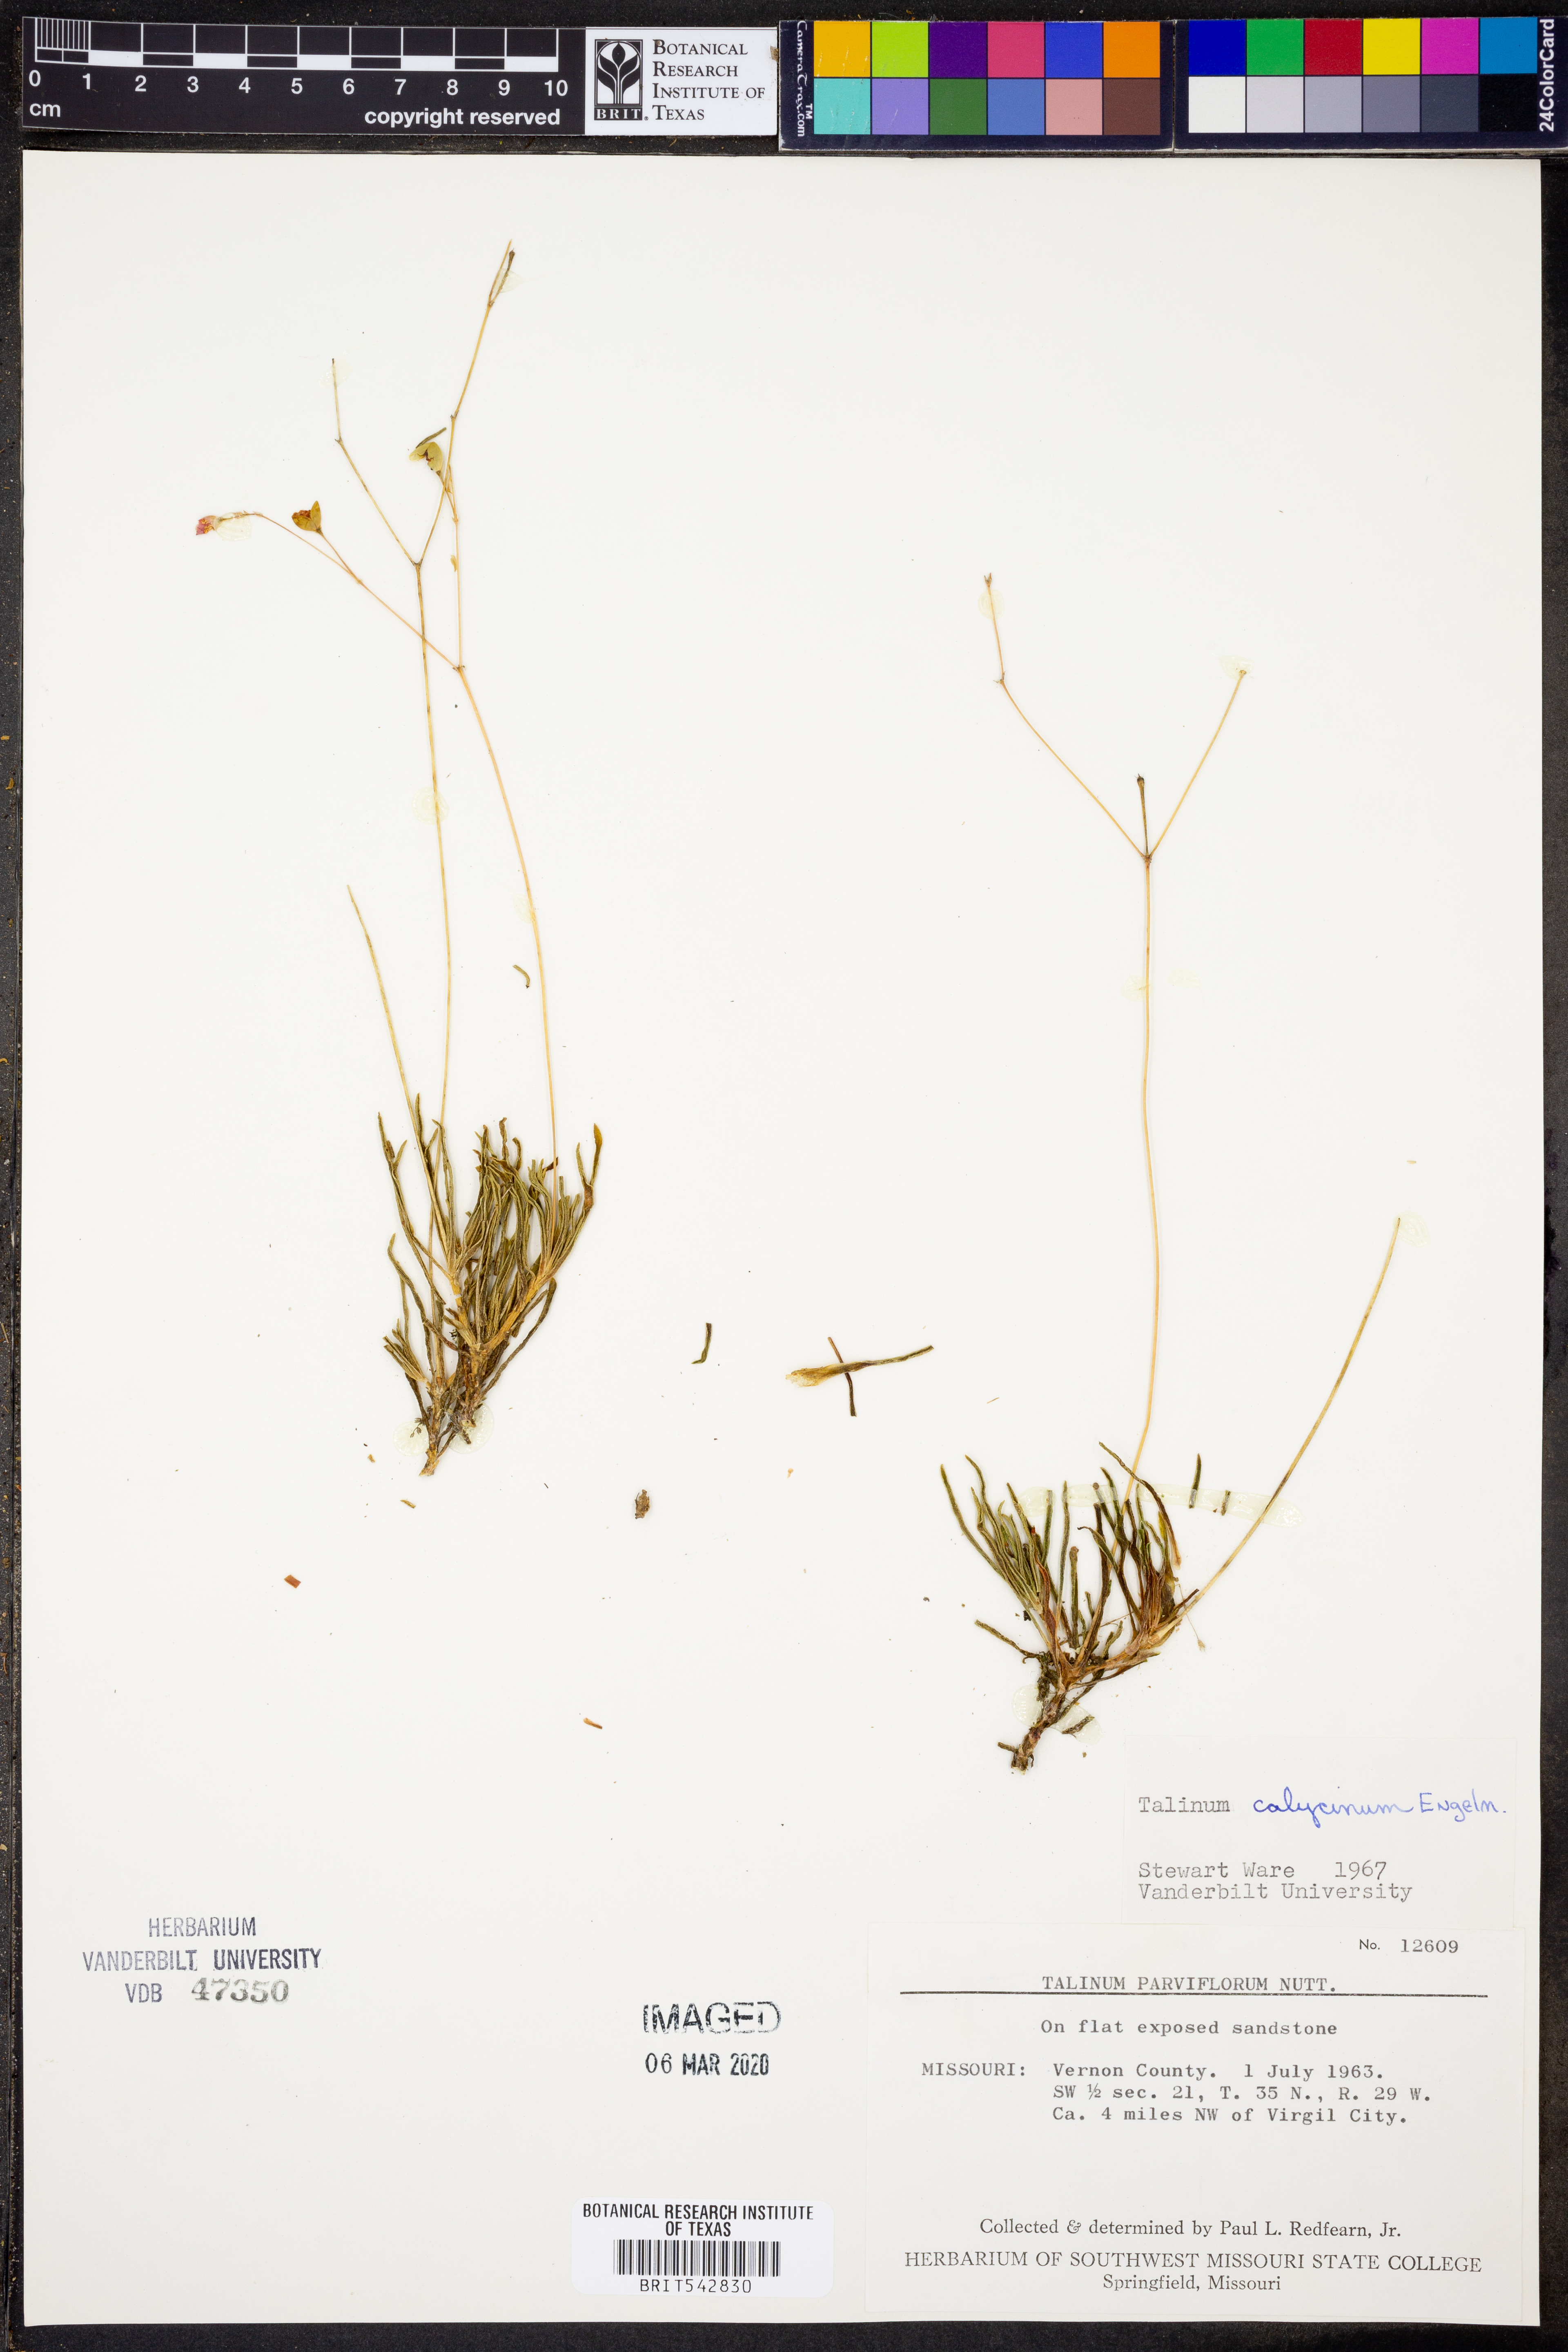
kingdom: Plantae
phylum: Tracheophyta
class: Magnoliopsida
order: Caryophyllales
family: Montiaceae
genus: Phemeranthus
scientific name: Phemeranthus calycinus
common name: Largeflower fameflower
